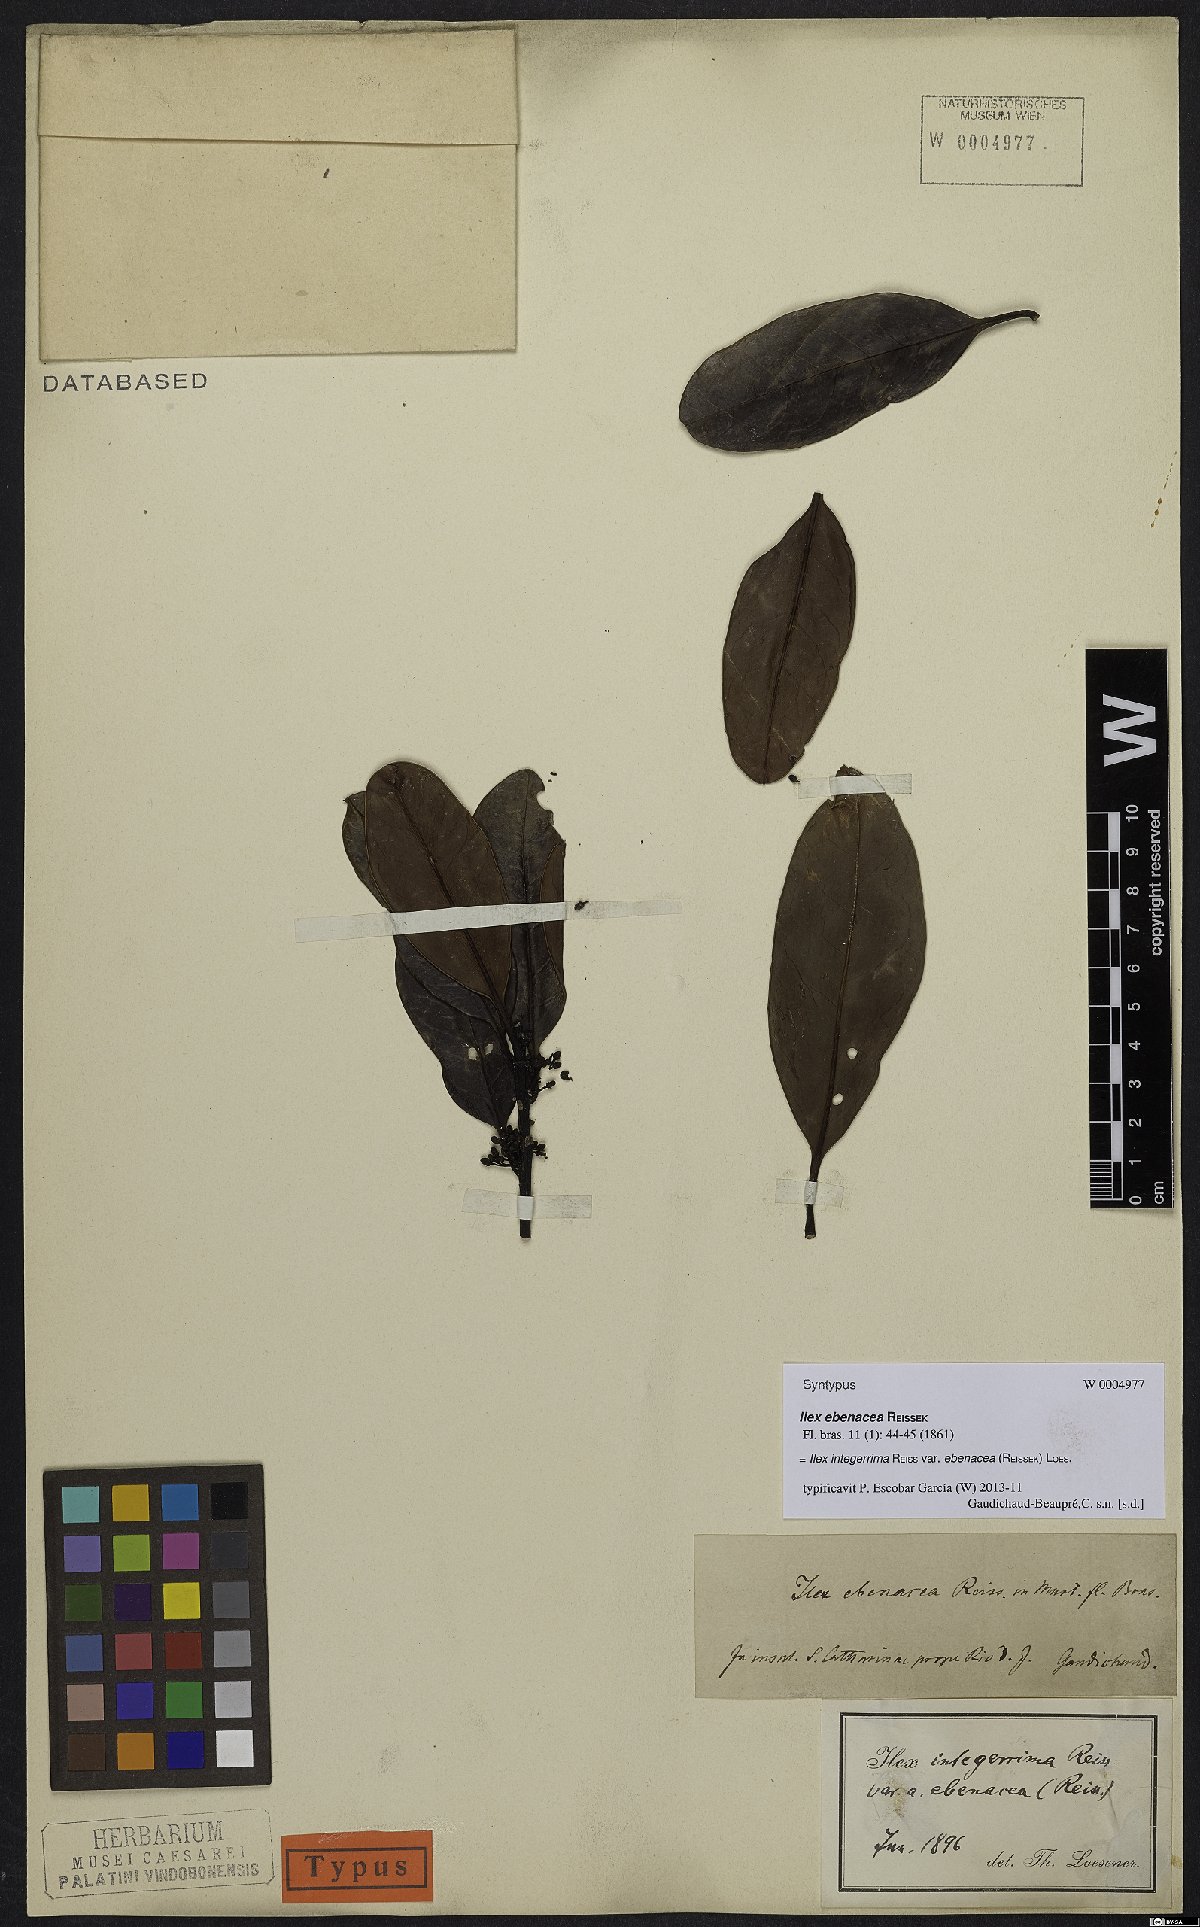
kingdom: Plantae
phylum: Tracheophyta
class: Magnoliopsida
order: Aquifoliales
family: Aquifoliaceae
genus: Ilex
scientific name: Ilex integerrima
